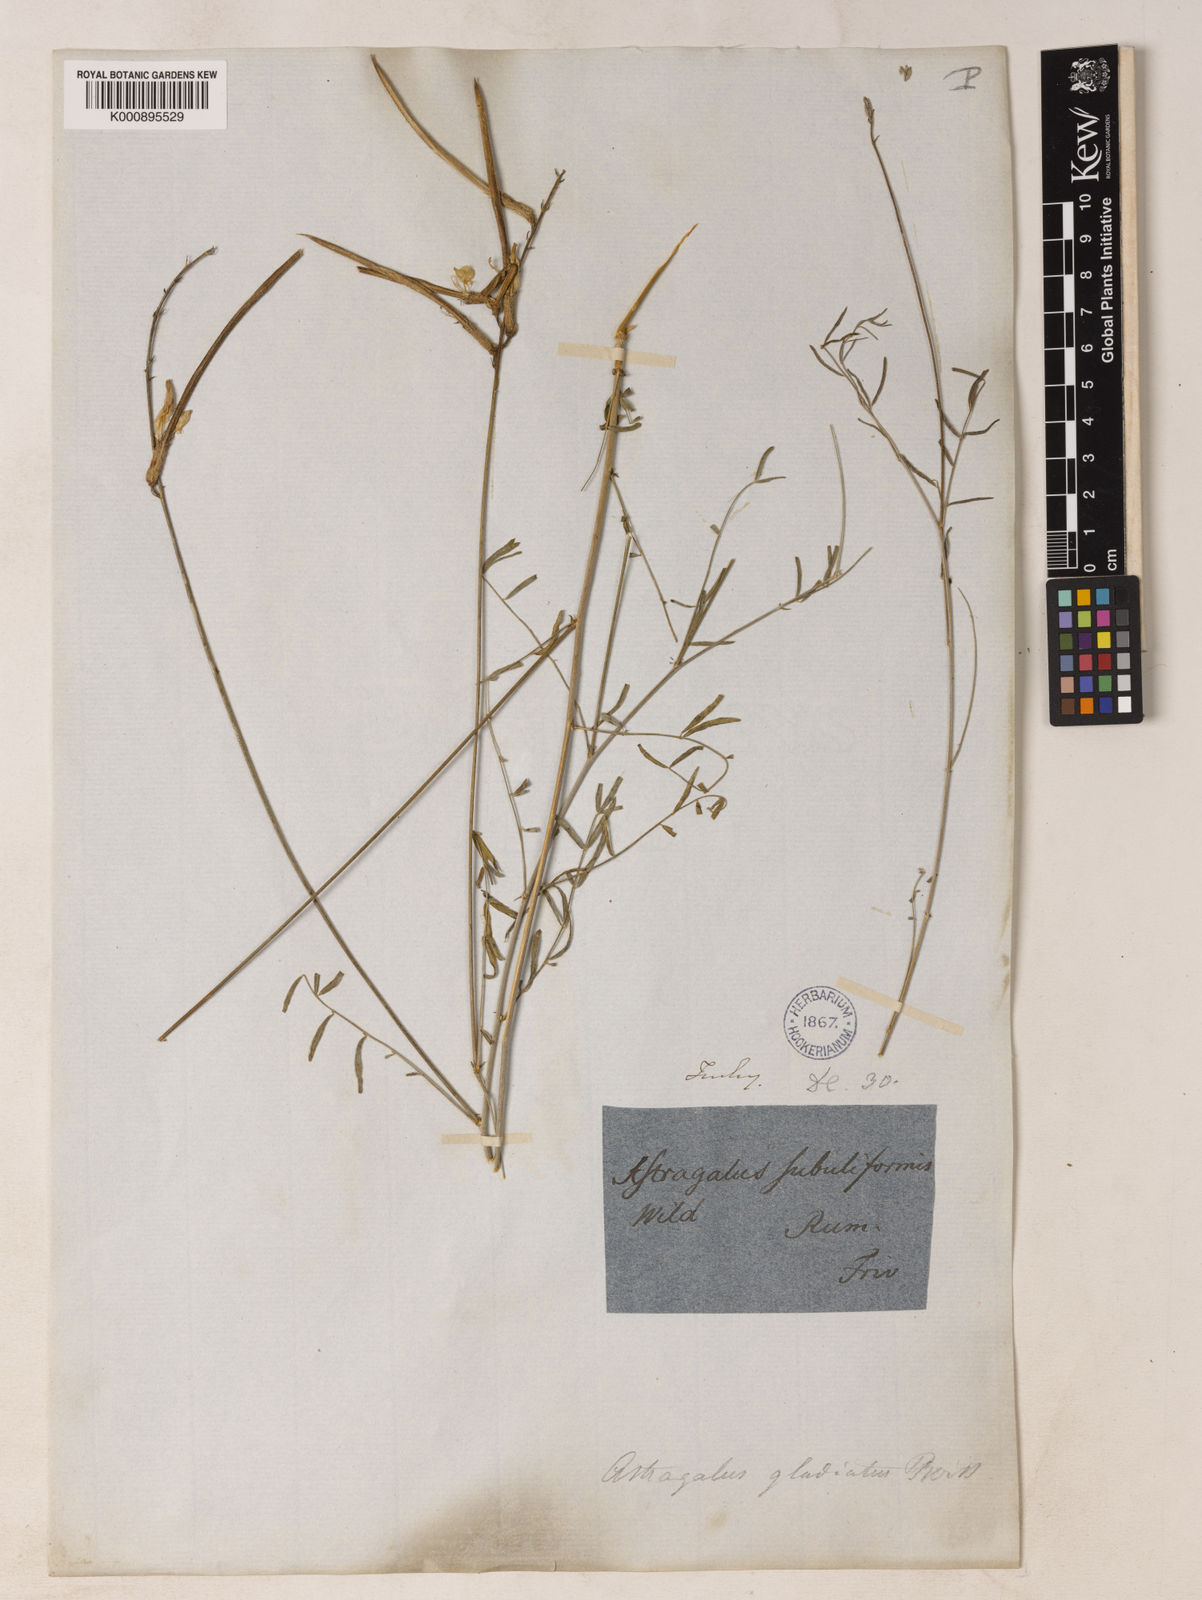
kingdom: Plantae
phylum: Tracheophyta
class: Magnoliopsida
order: Fabales
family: Fabaceae
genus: Astragalus
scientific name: Astragalus gladiatus
